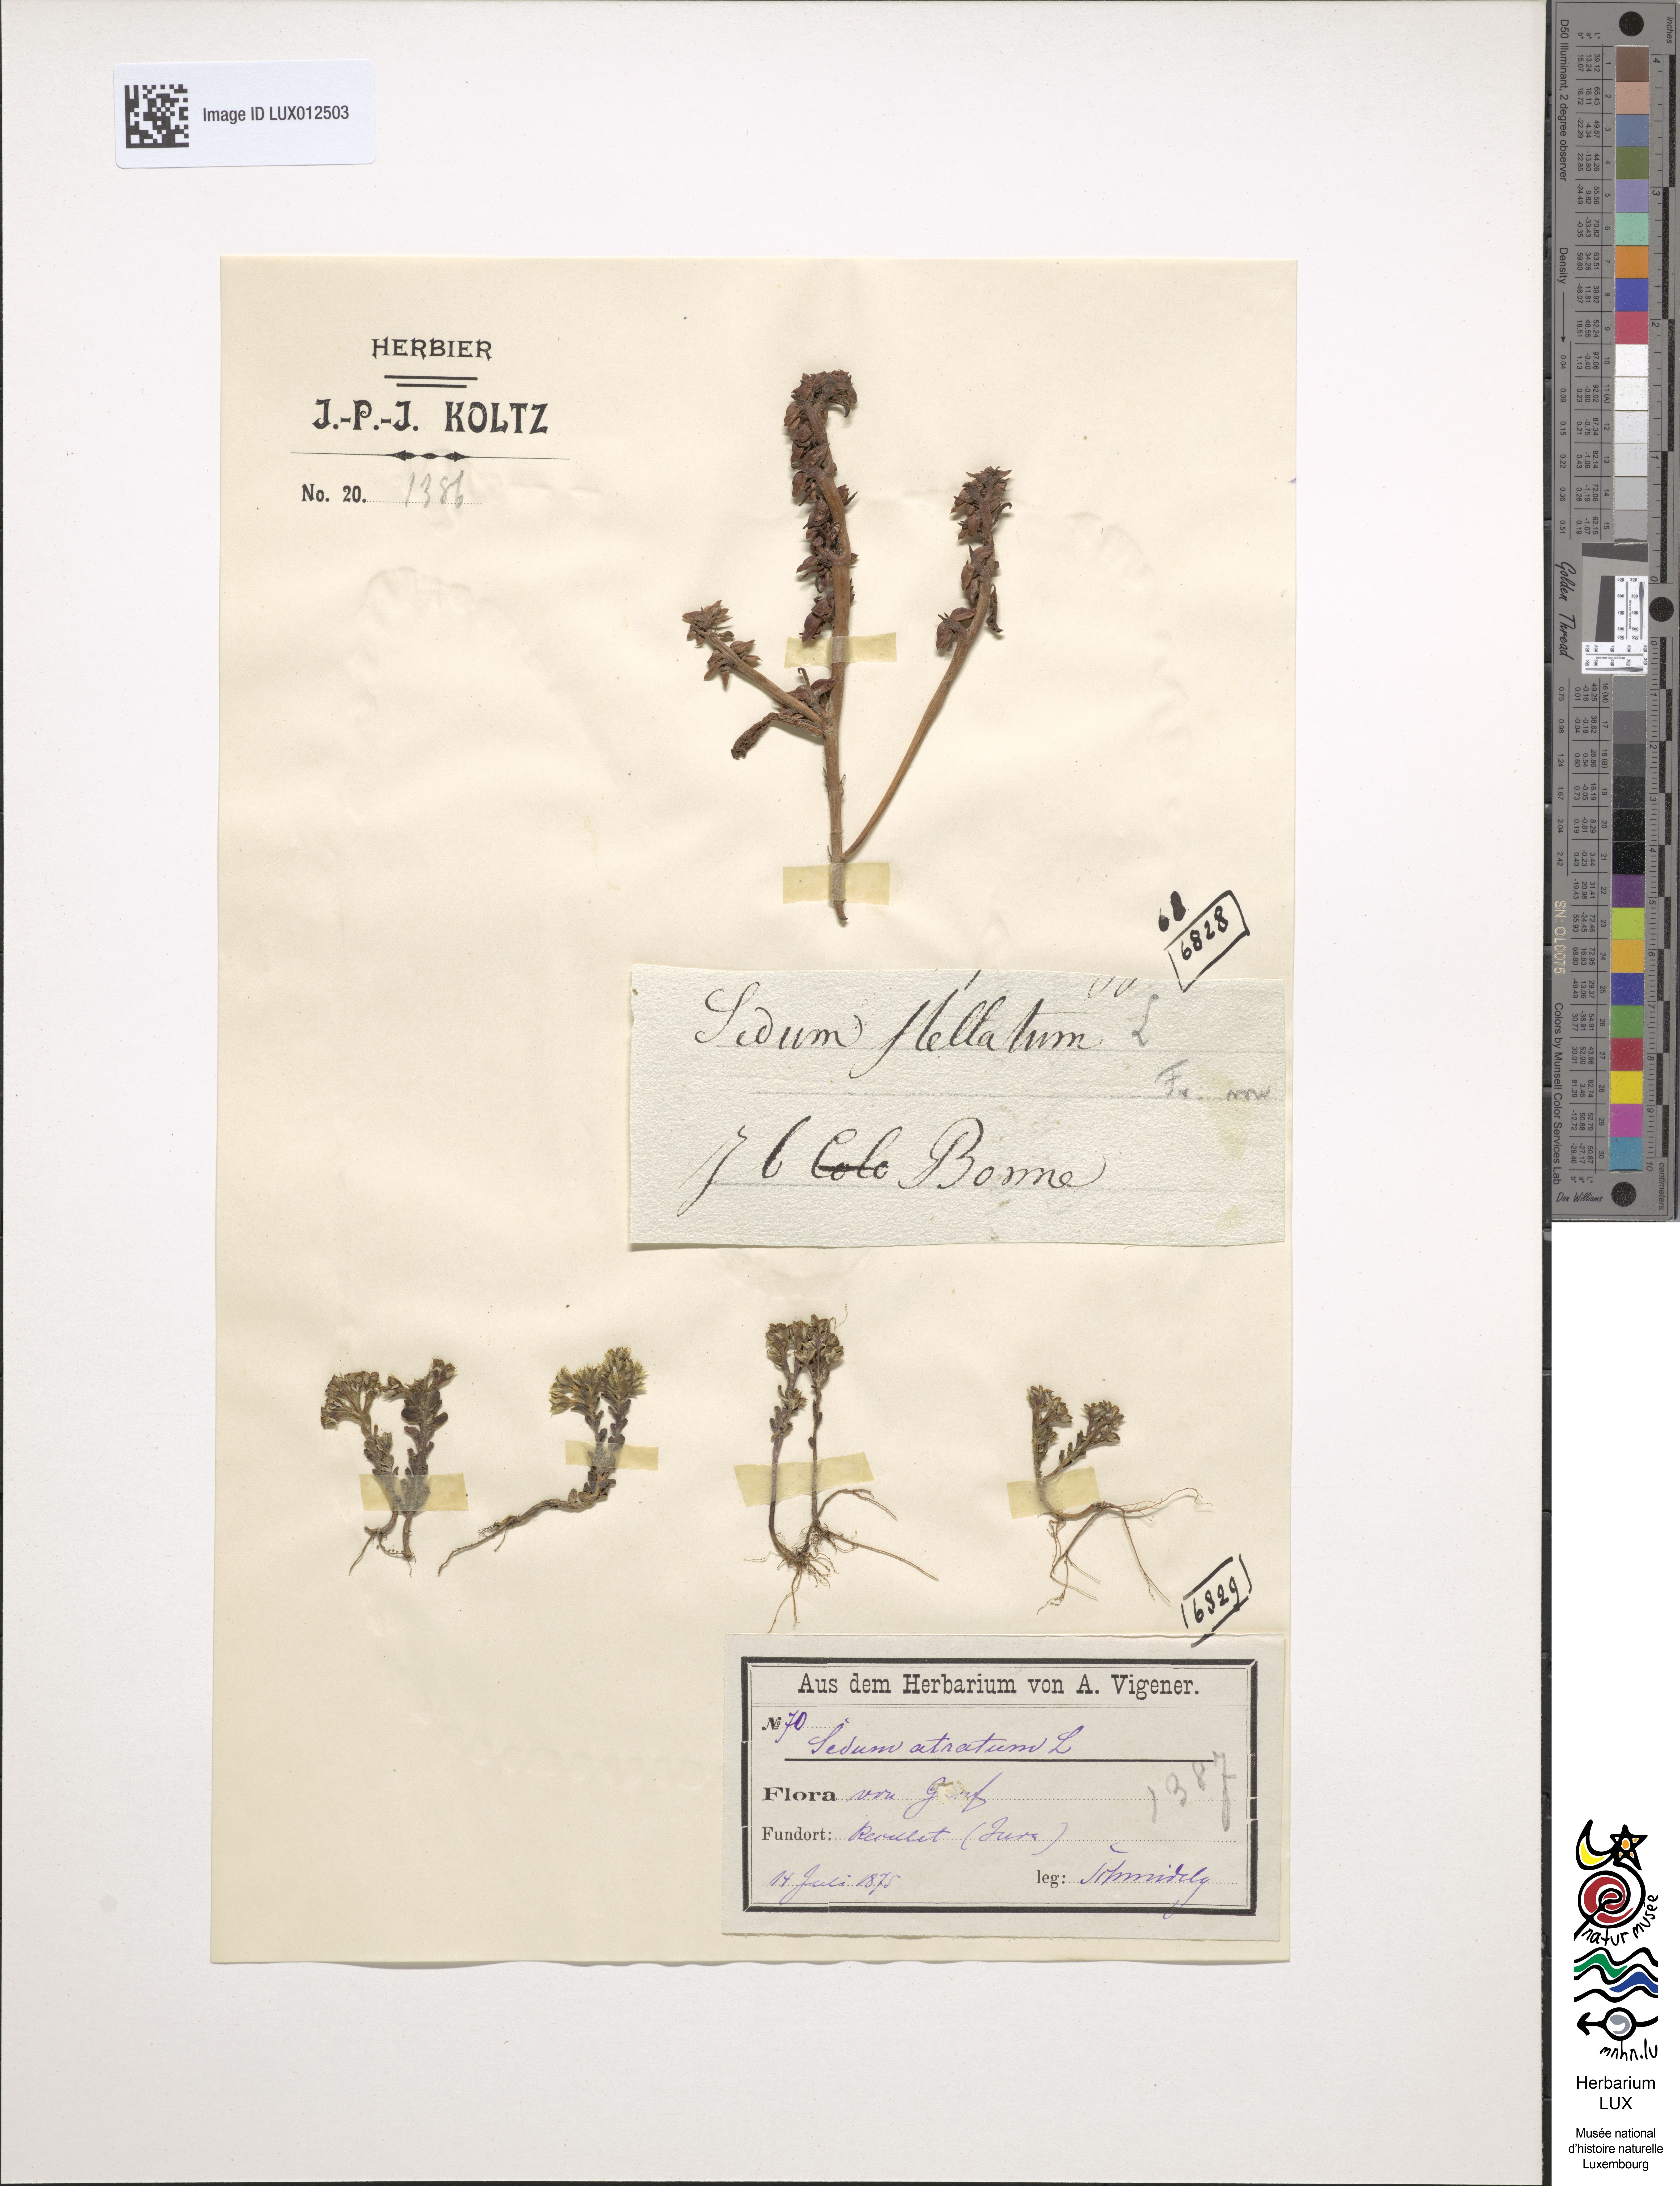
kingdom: Plantae
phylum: Tracheophyta
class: Magnoliopsida
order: Saxifragales
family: Crassulaceae
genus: Phedimus
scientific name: Phedimus stellatus
